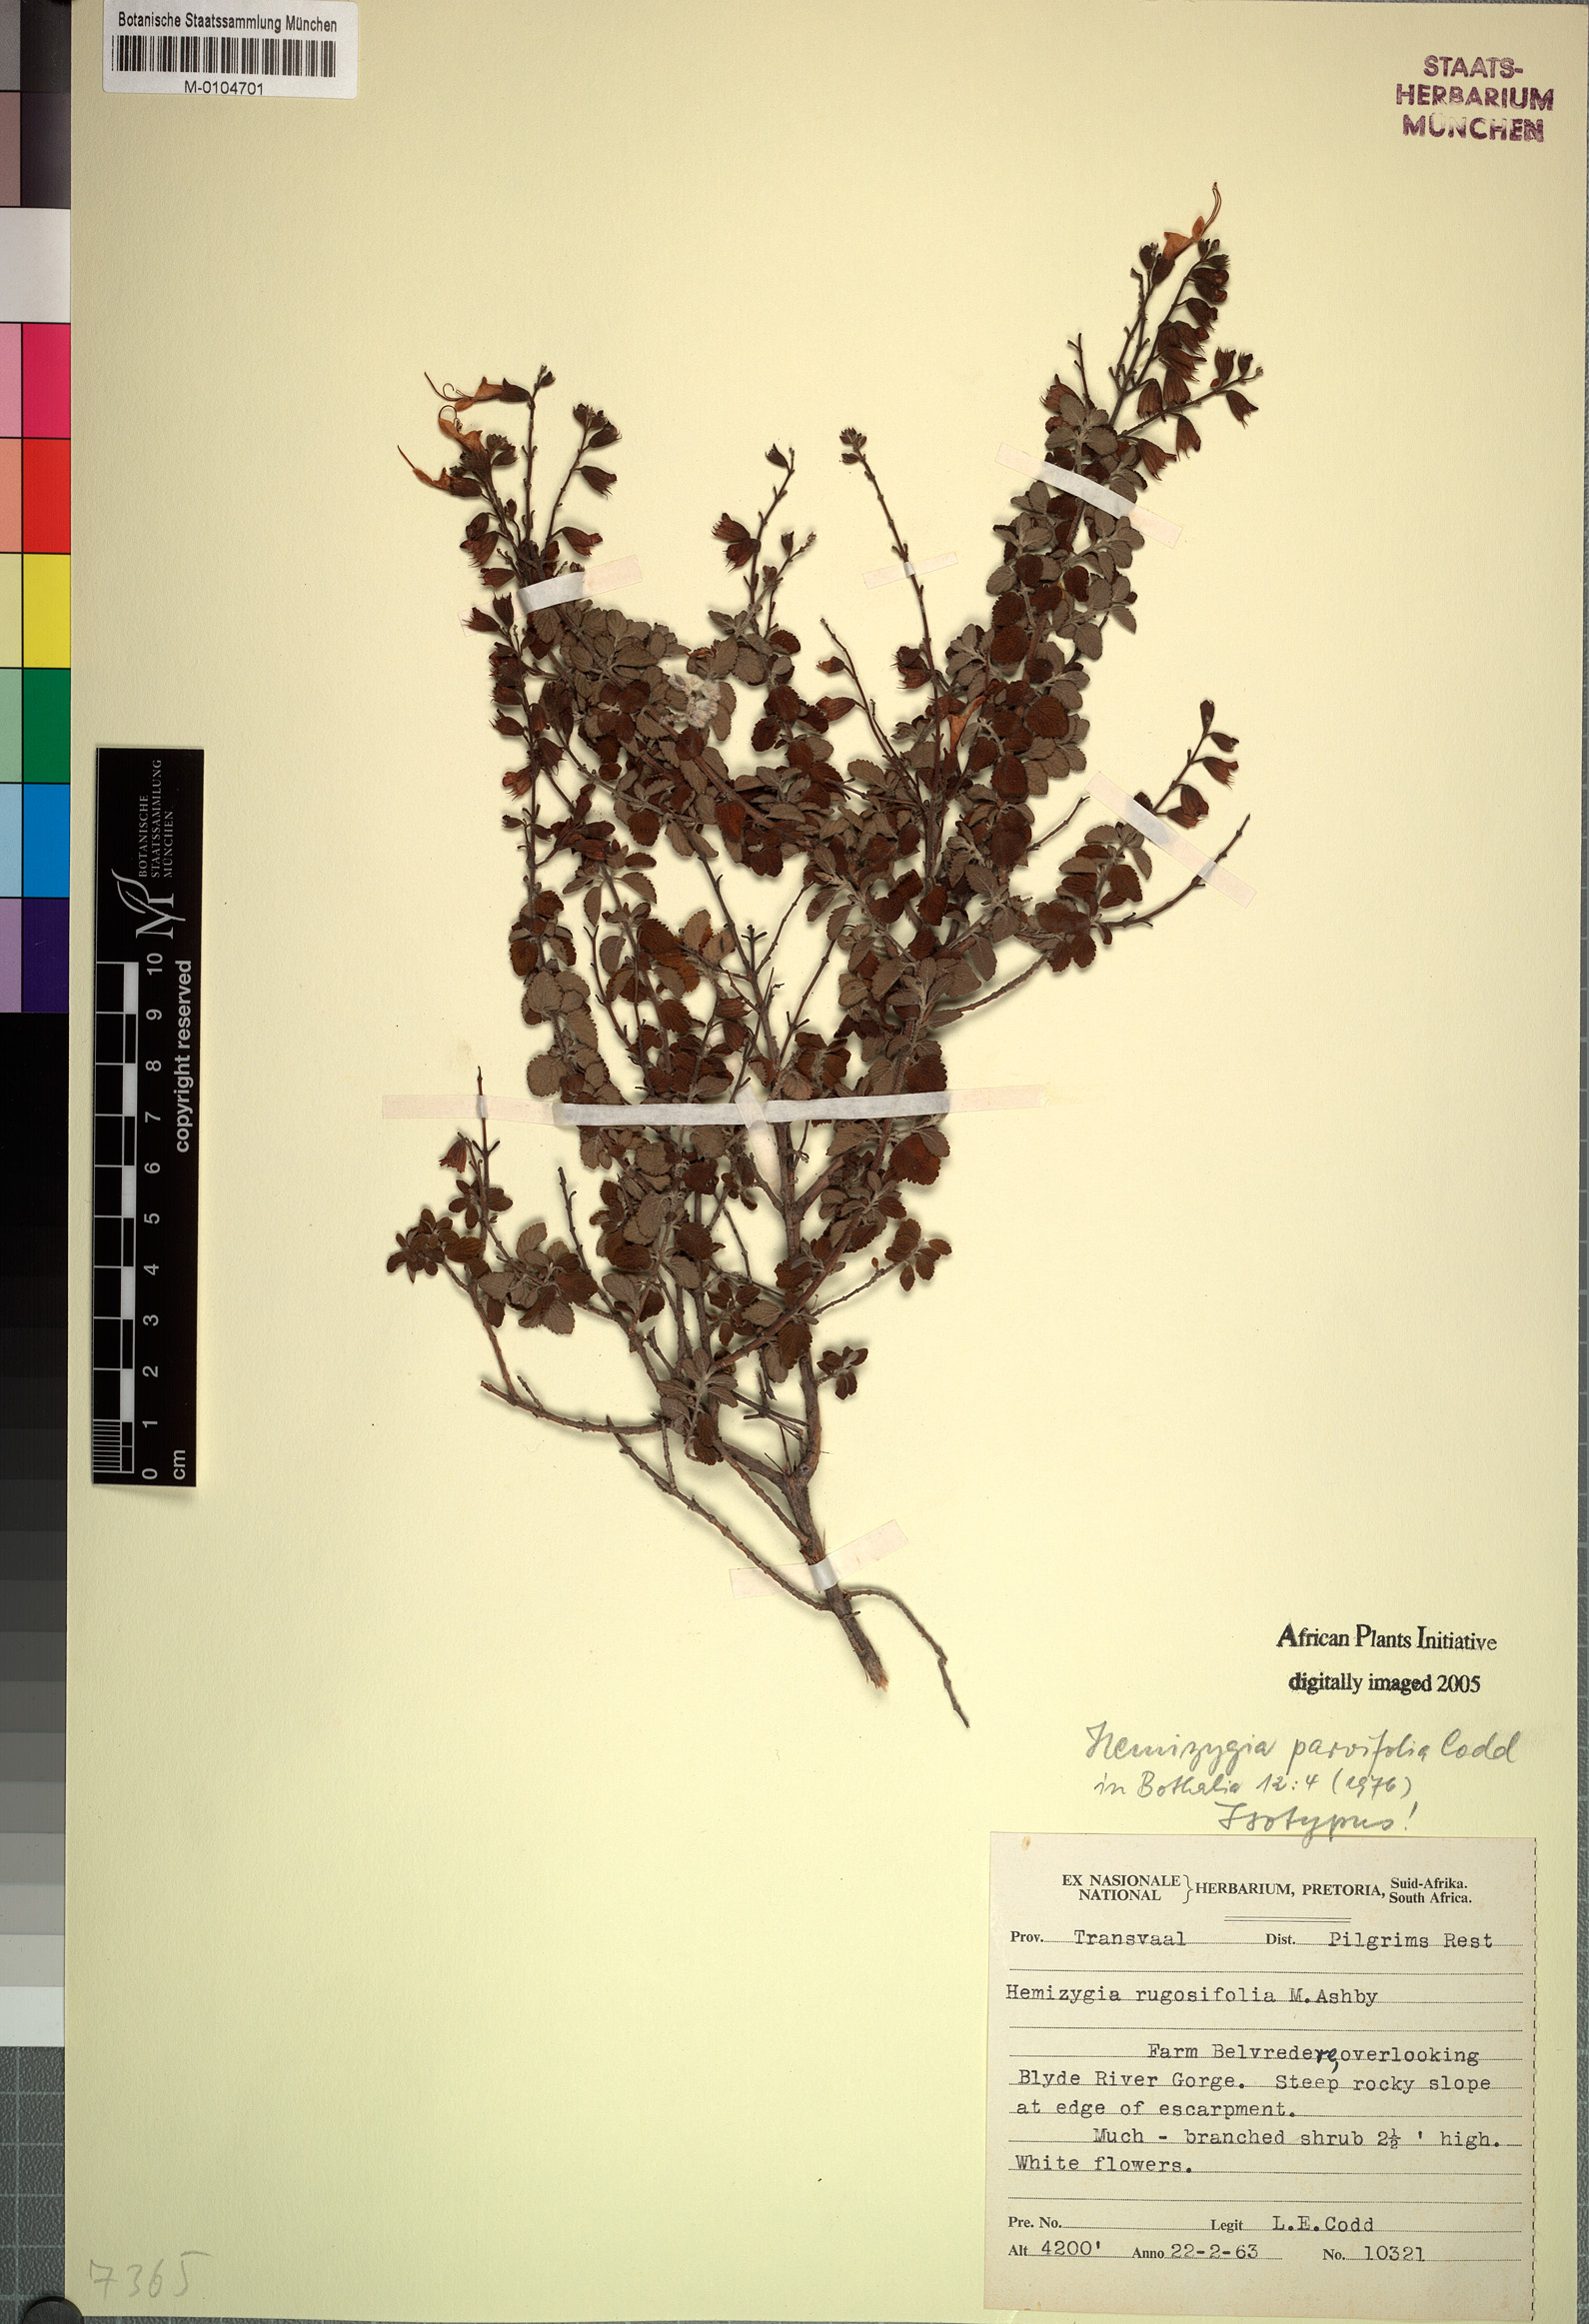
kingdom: Plantae
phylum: Tracheophyta
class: Magnoliopsida
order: Lamiales
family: Lamiaceae
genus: Syncolostemon
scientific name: Syncolostemon parvifolius
